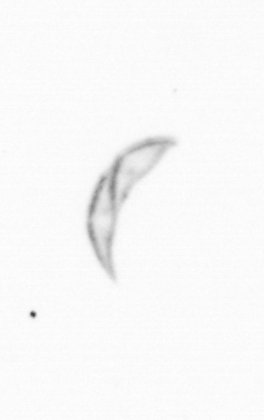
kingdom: Chromista
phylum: Ochrophyta
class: Bacillariophyceae
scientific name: Bacillariophyceae
